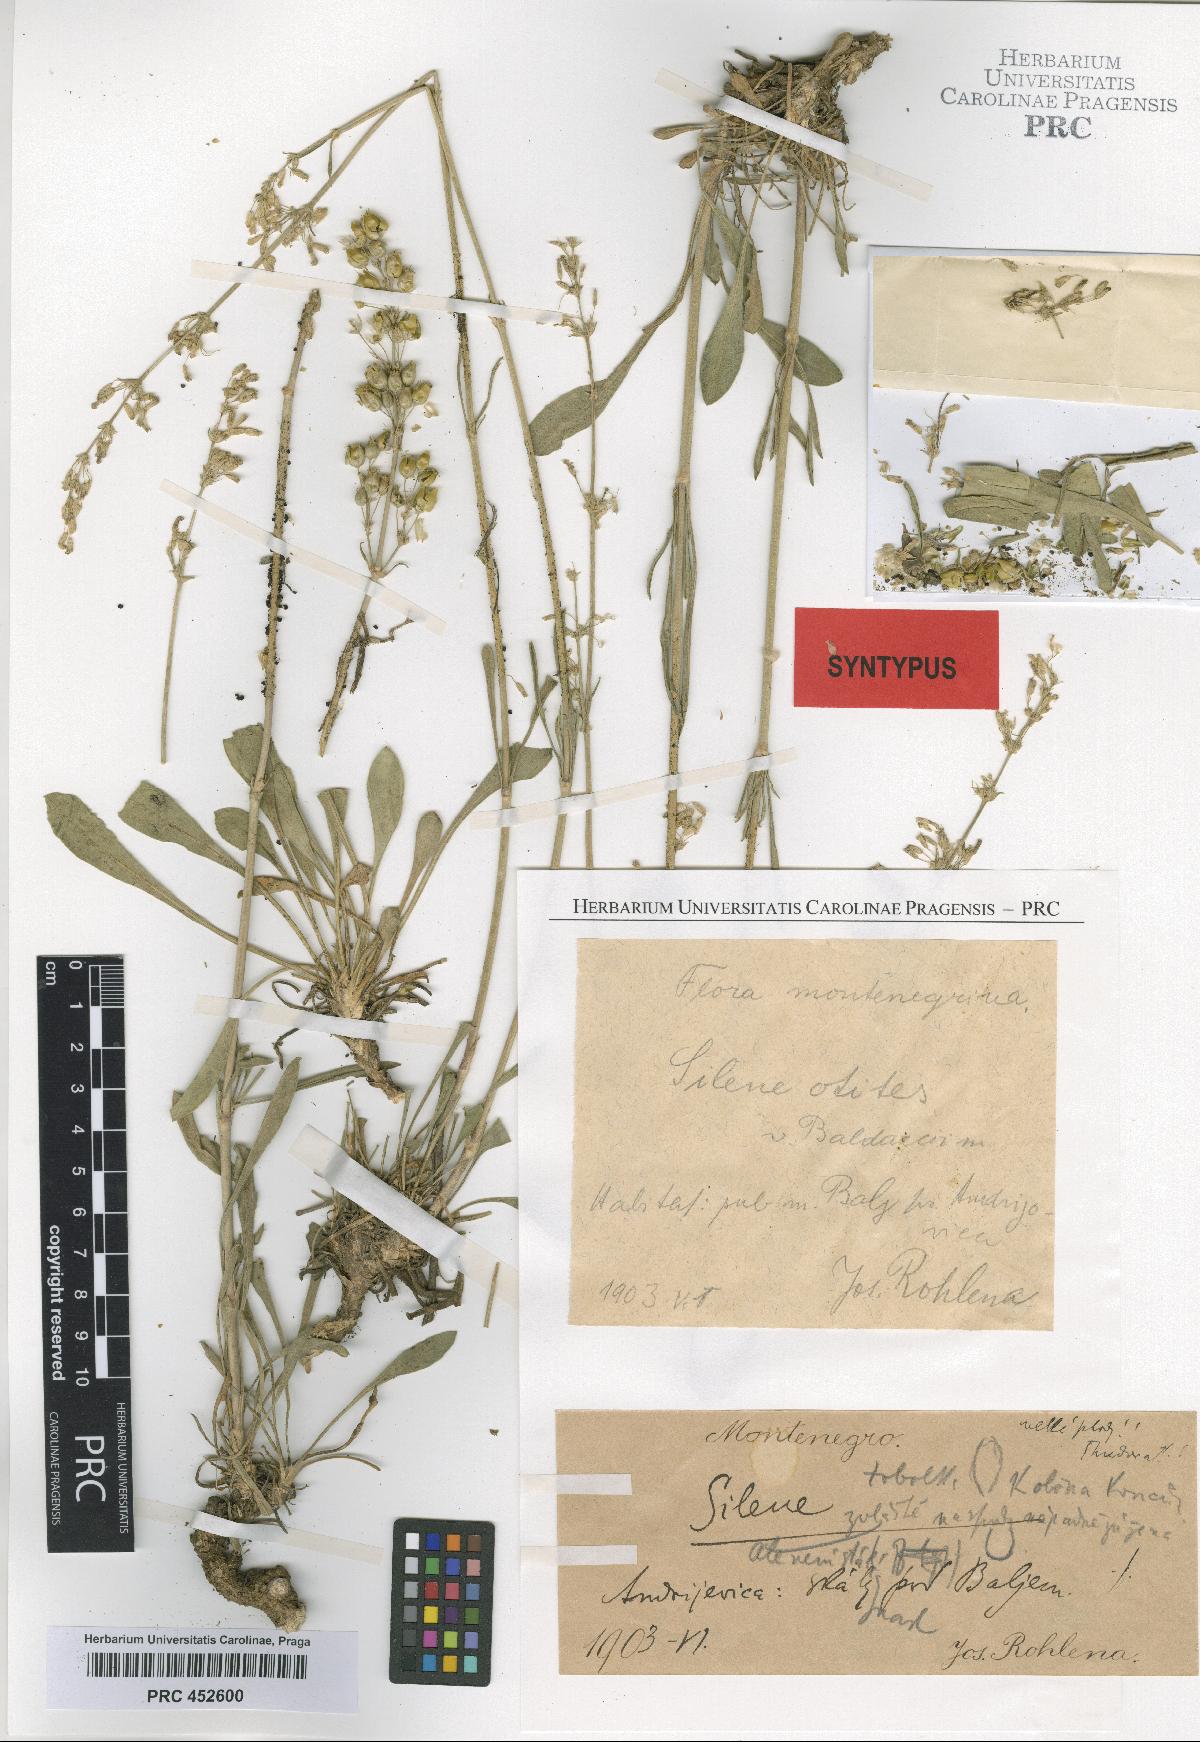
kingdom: Plantae
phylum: Tracheophyta
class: Magnoliopsida
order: Caryophyllales
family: Caryophyllaceae
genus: Silene
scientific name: Silene otites
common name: Spanish catchfly
